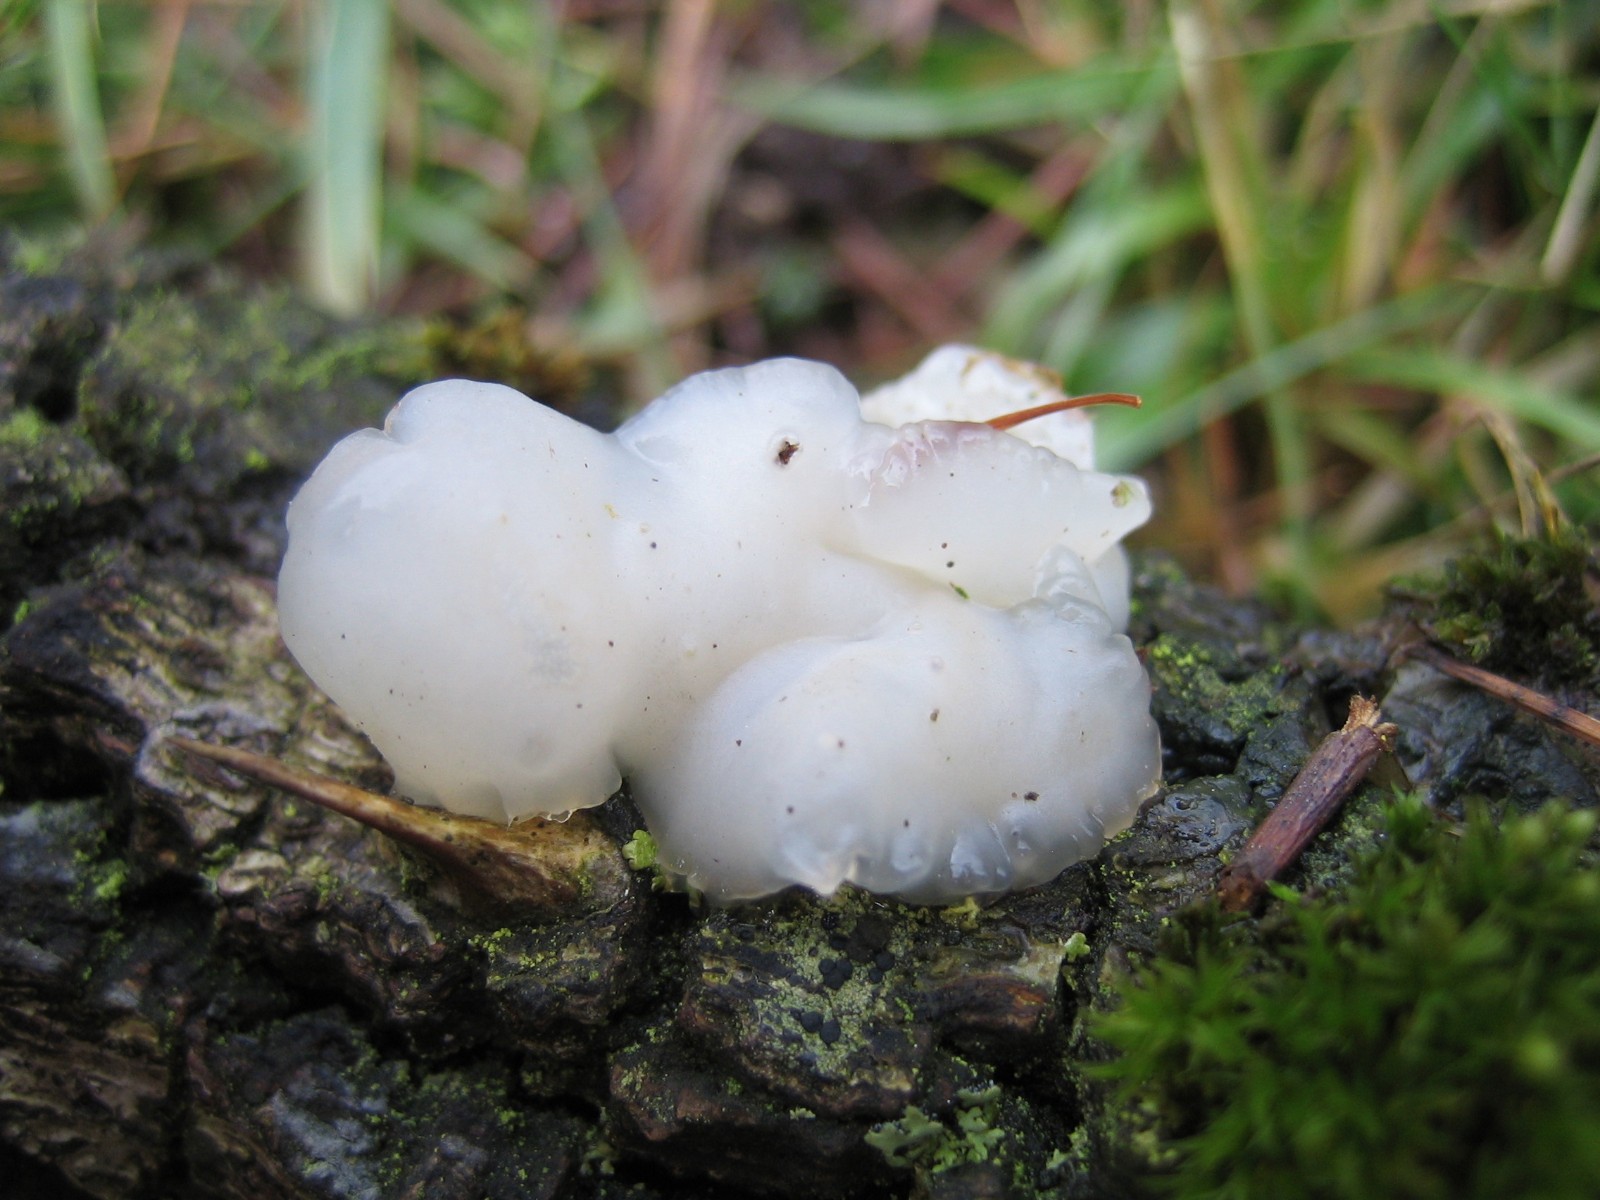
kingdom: Fungi
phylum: Basidiomycota
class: Agaricomycetes
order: Auriculariales
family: Auriculariaceae
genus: Exidia
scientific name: Exidia thuretiana
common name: hvidlig bævretop
